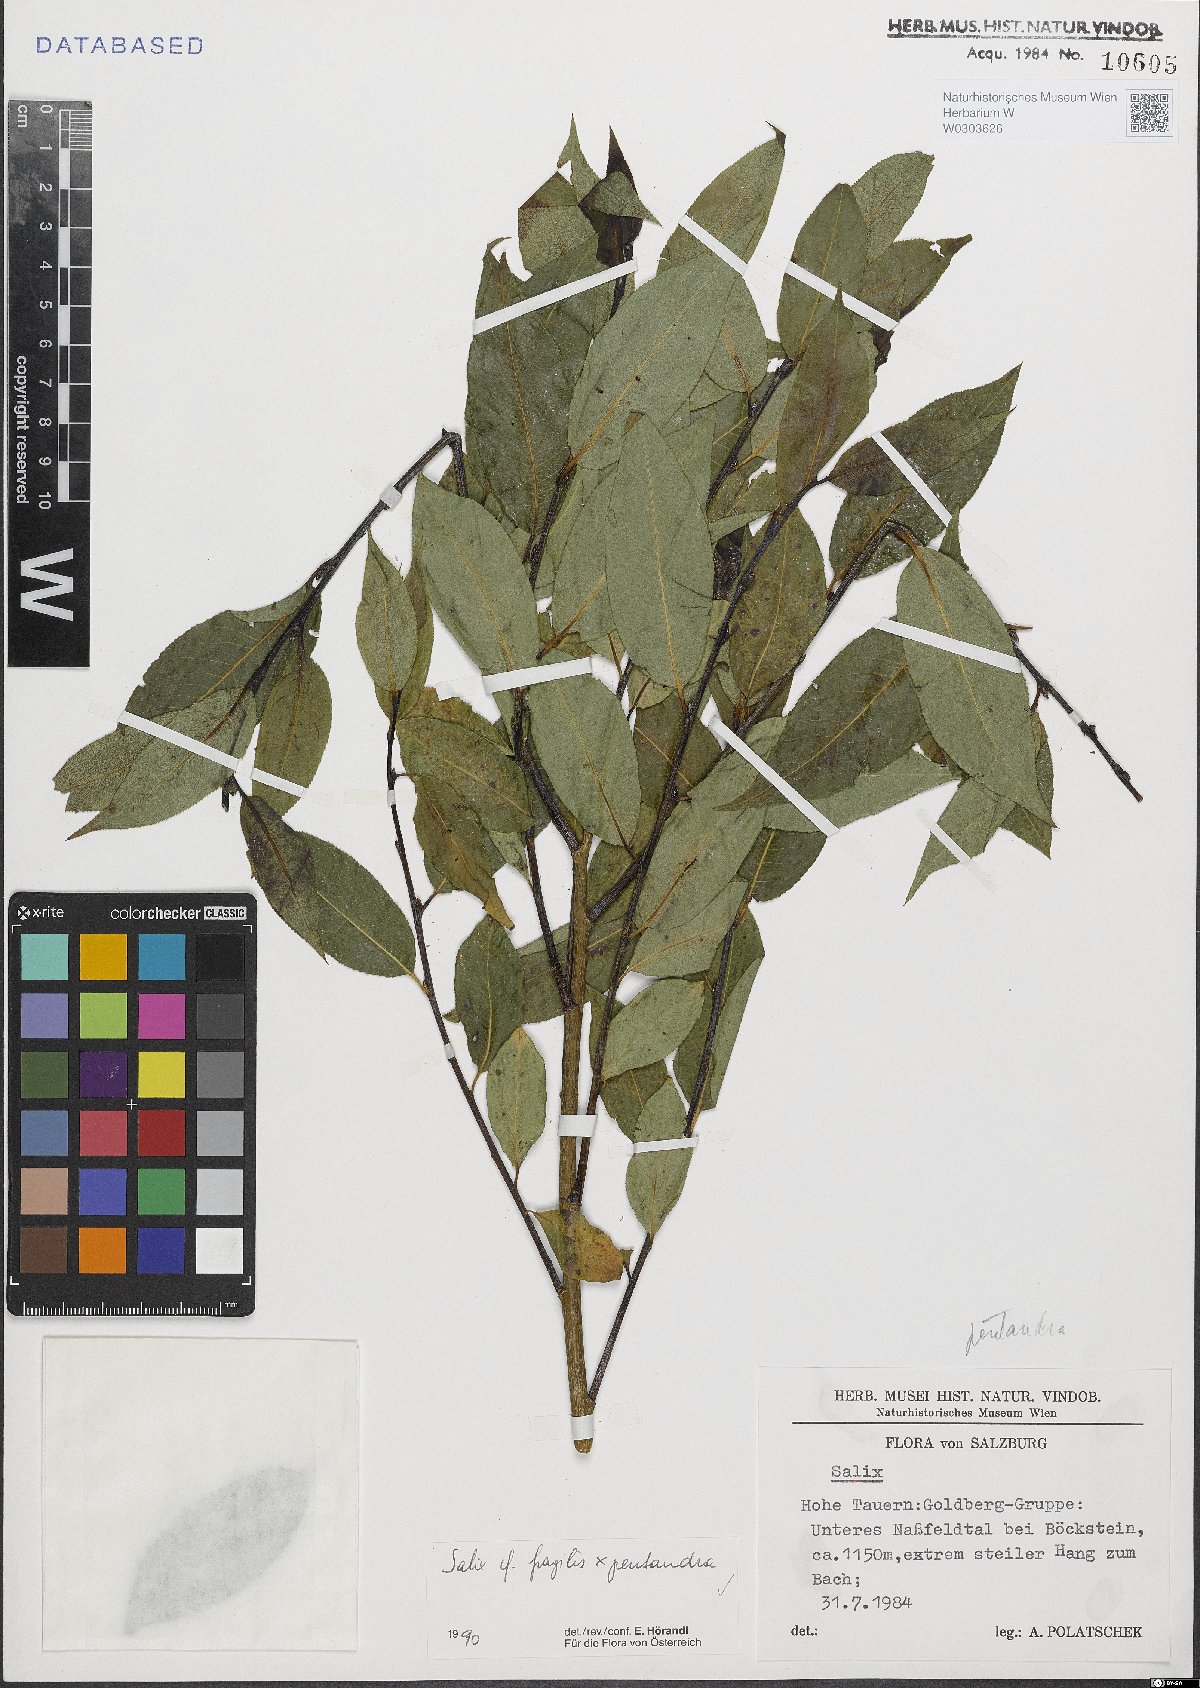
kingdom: Plantae
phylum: Tracheophyta
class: Magnoliopsida
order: Malpighiales
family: Salicaceae
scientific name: Salicaceae
